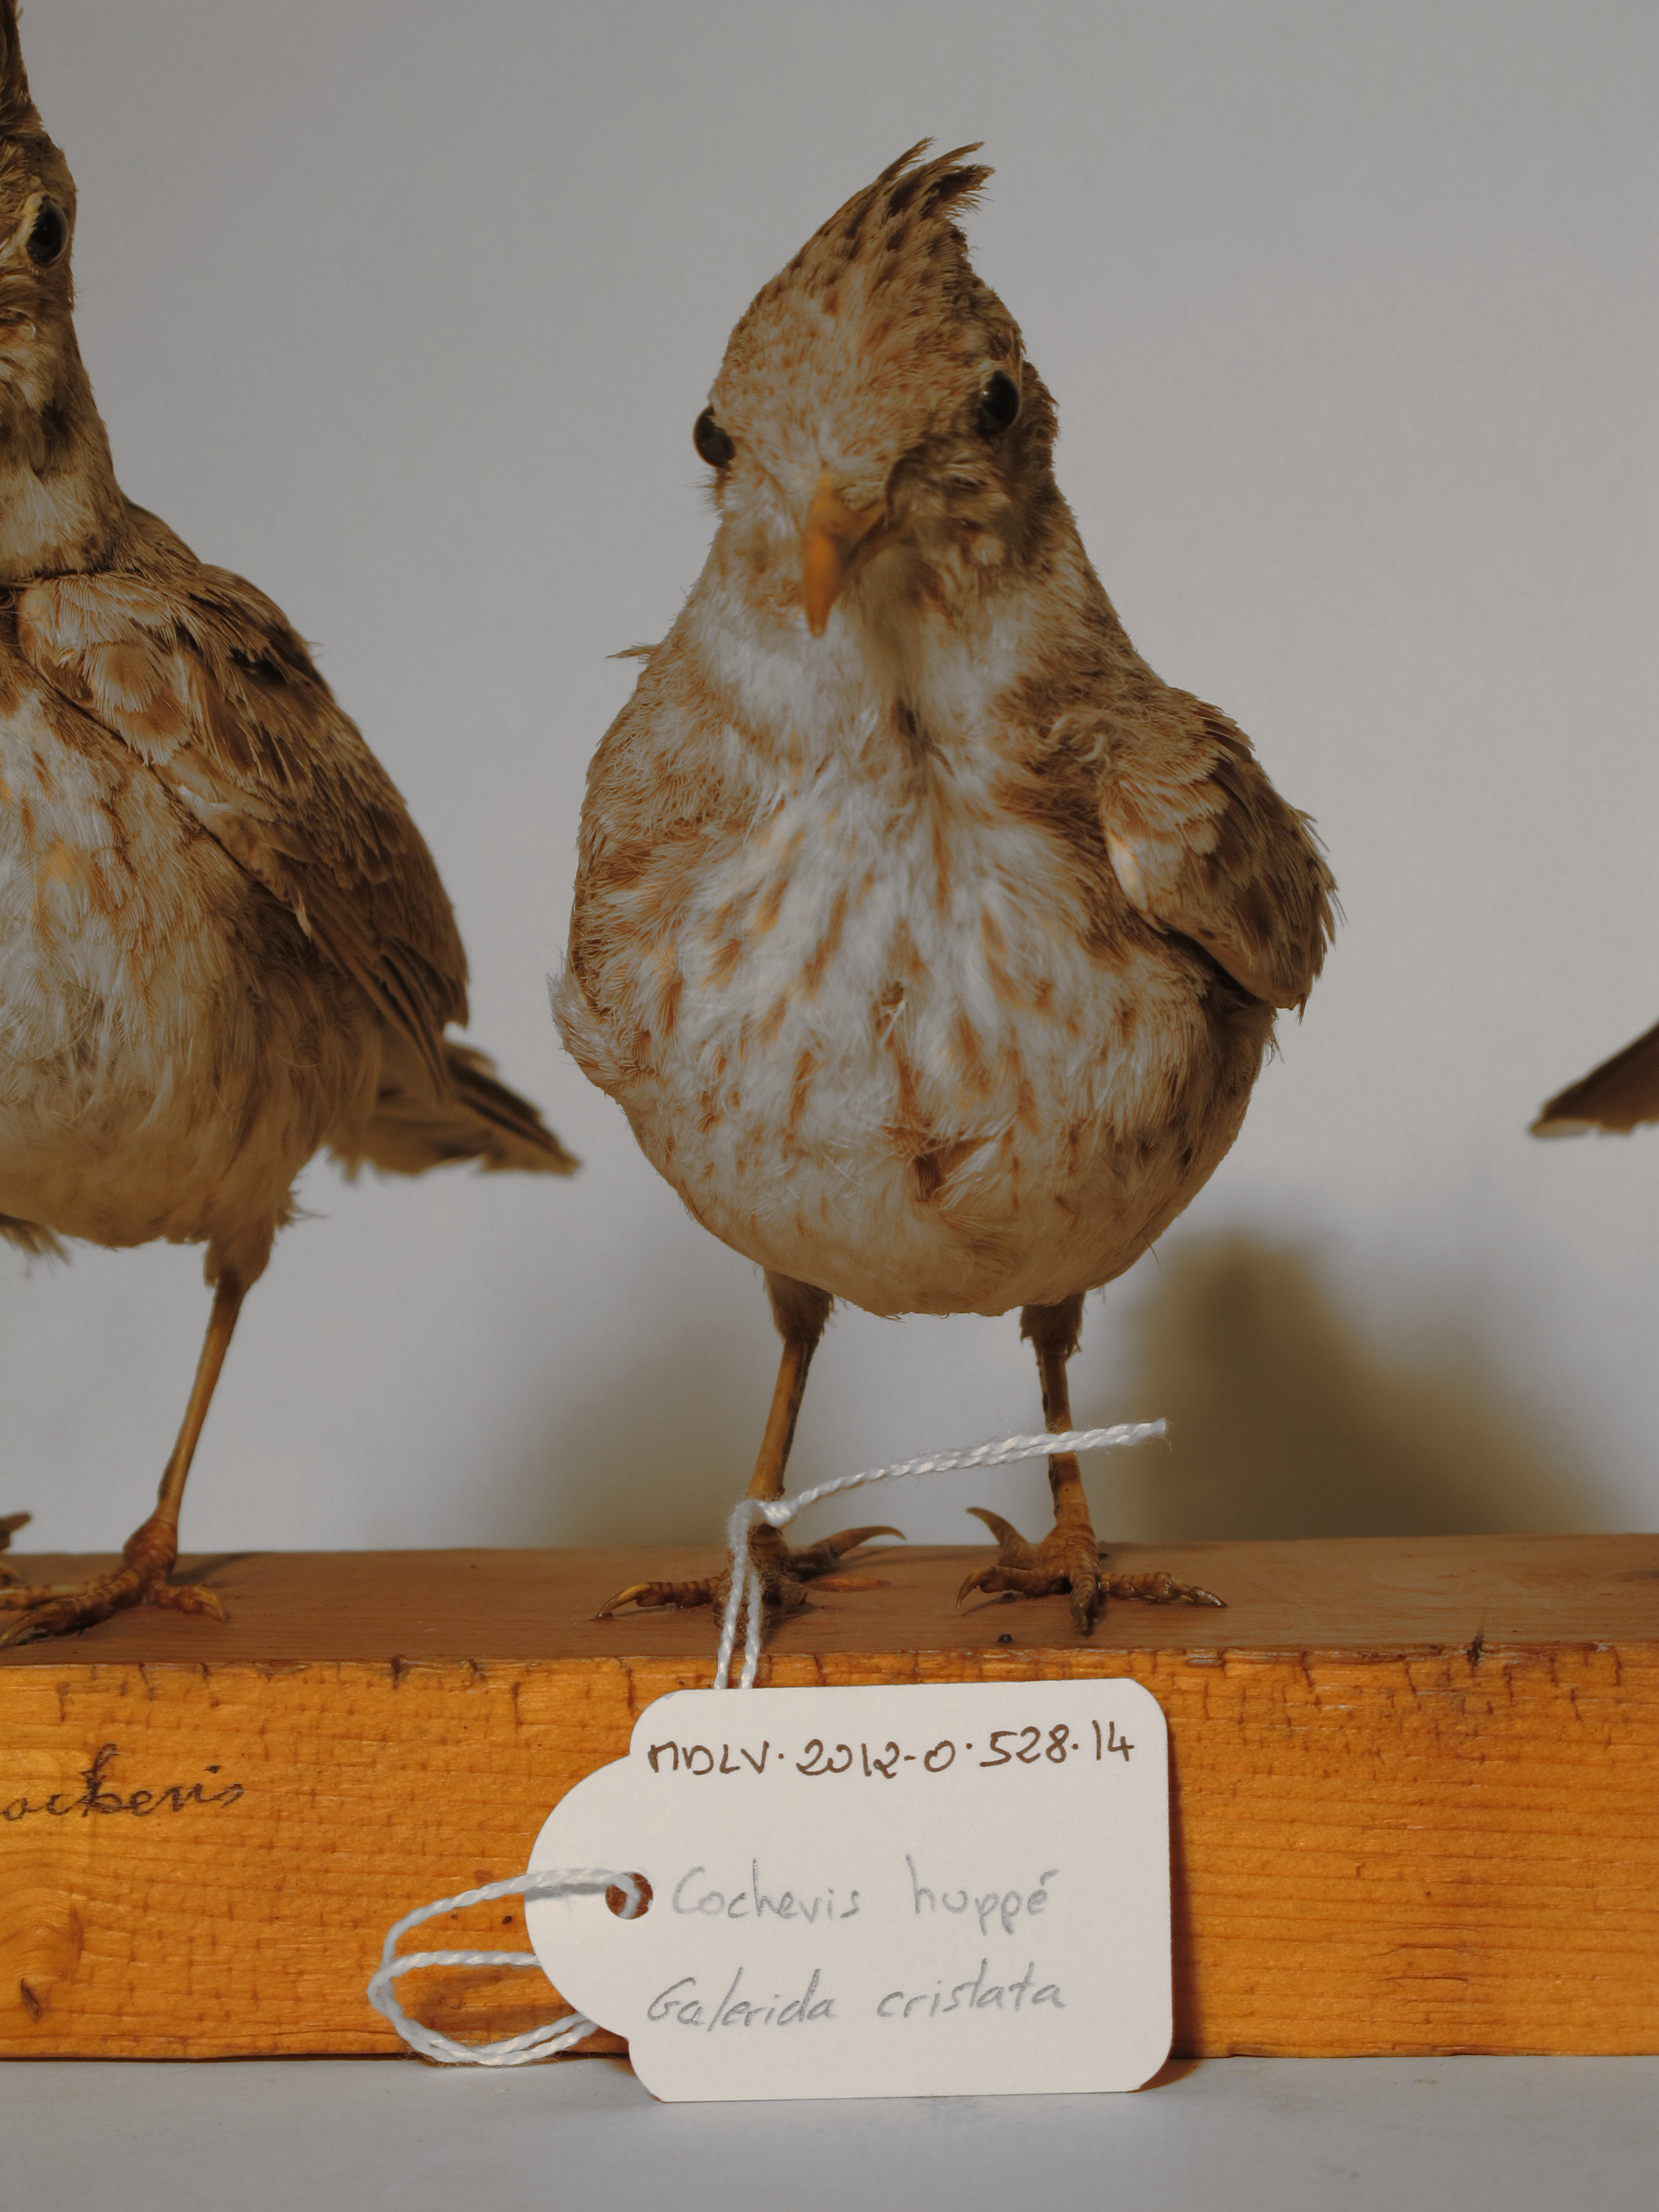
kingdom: Animalia
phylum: Chordata
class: Aves
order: Passeriformes
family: Alaudidae
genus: Galerida
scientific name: Galerida cristata
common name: Crested Lark
